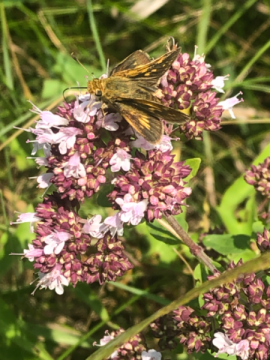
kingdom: Animalia
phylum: Arthropoda
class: Insecta
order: Lepidoptera
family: Hesperiidae
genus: Polites
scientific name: Polites coras
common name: Peck's Skipper
